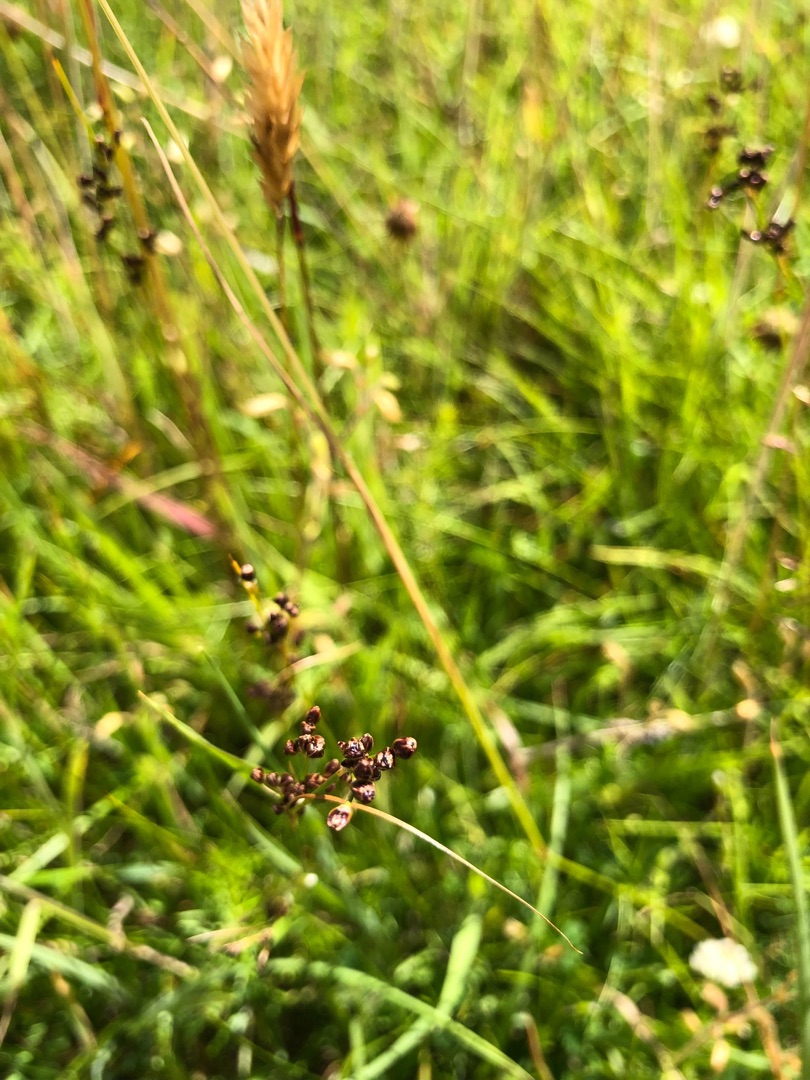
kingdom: Plantae
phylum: Tracheophyta
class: Liliopsida
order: Poales
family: Juncaceae
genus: Juncus
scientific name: Juncus gerardi
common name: Harril
